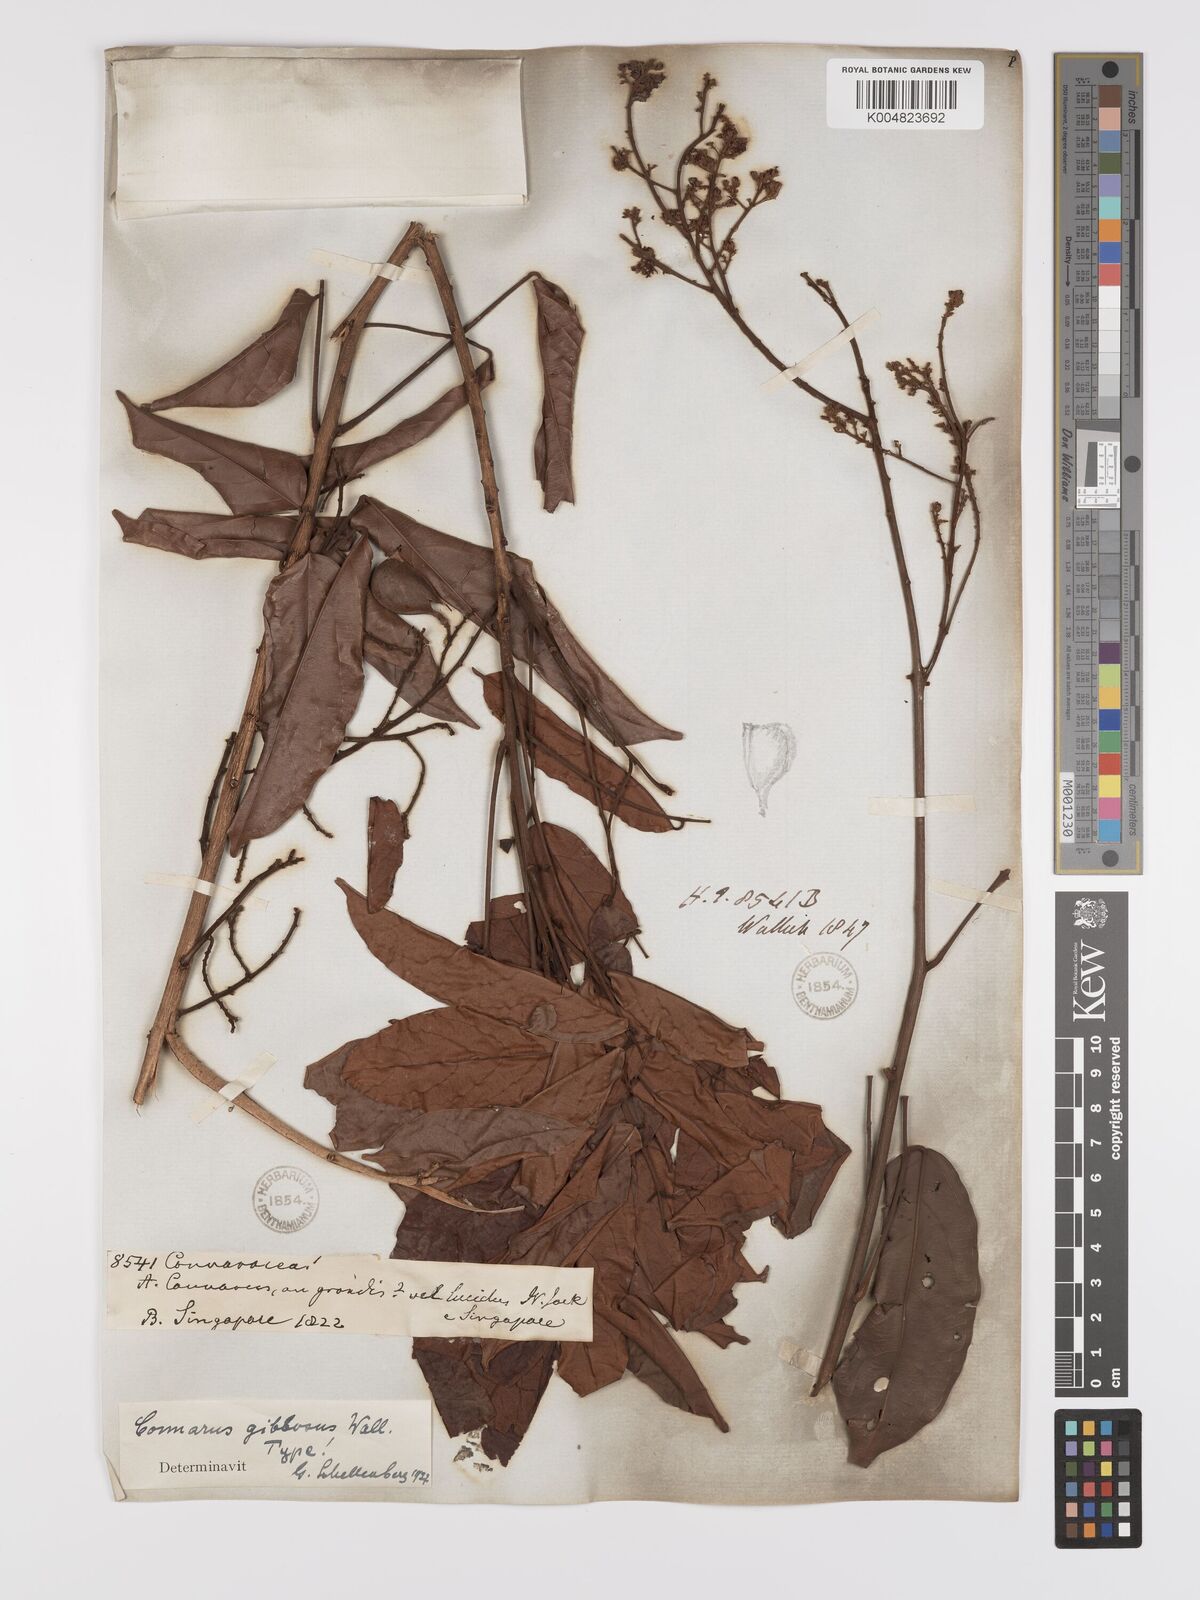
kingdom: Plantae
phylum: Tracheophyta
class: Magnoliopsida
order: Oxalidales
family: Connaraceae
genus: Connarus
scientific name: Connarus semidecandrus
